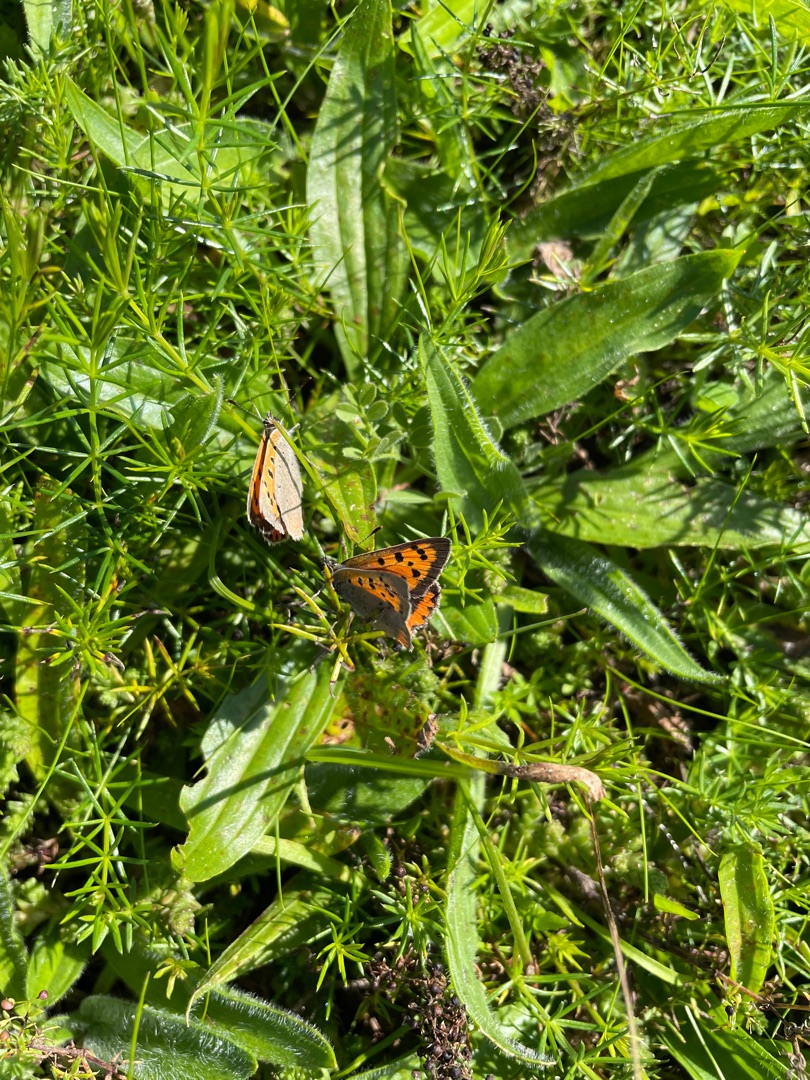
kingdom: Animalia
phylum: Arthropoda
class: Insecta
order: Lepidoptera
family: Lycaenidae
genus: Lycaena
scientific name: Lycaena phlaeas
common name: Lille ildfugl
